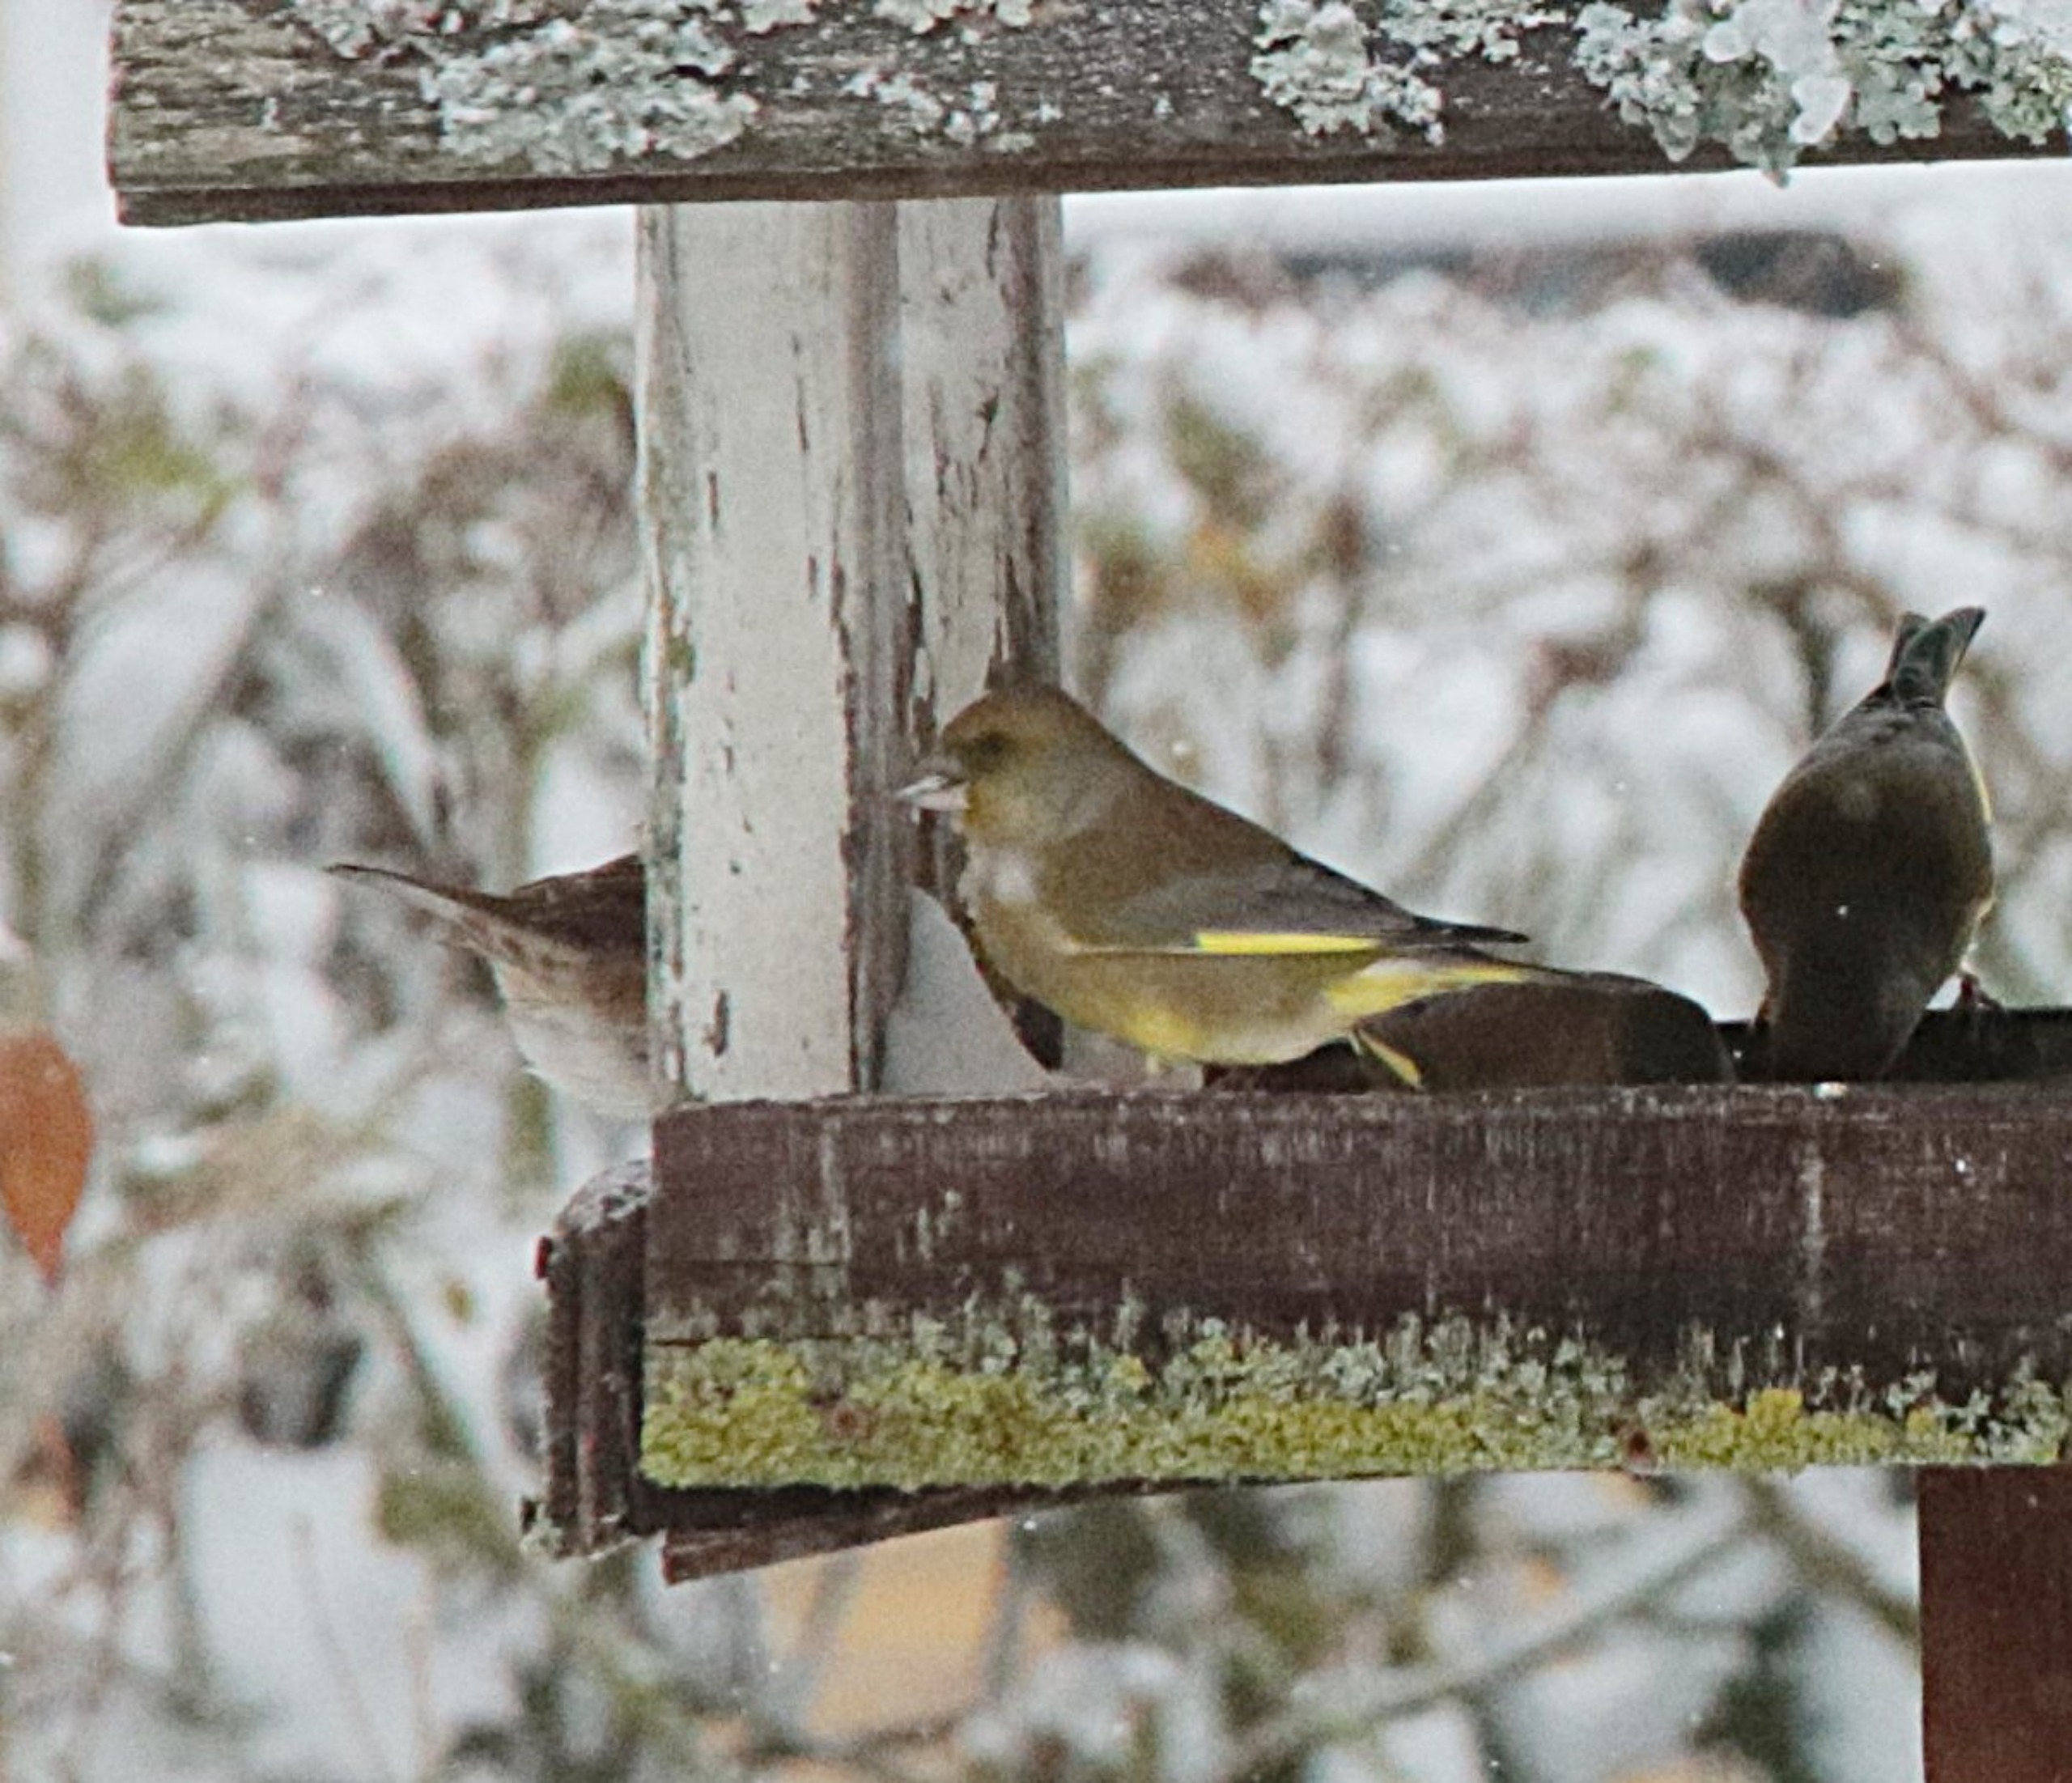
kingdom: Plantae
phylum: Tracheophyta
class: Liliopsida
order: Poales
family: Poaceae
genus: Chloris
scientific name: Chloris chloris
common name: Grønirisk
